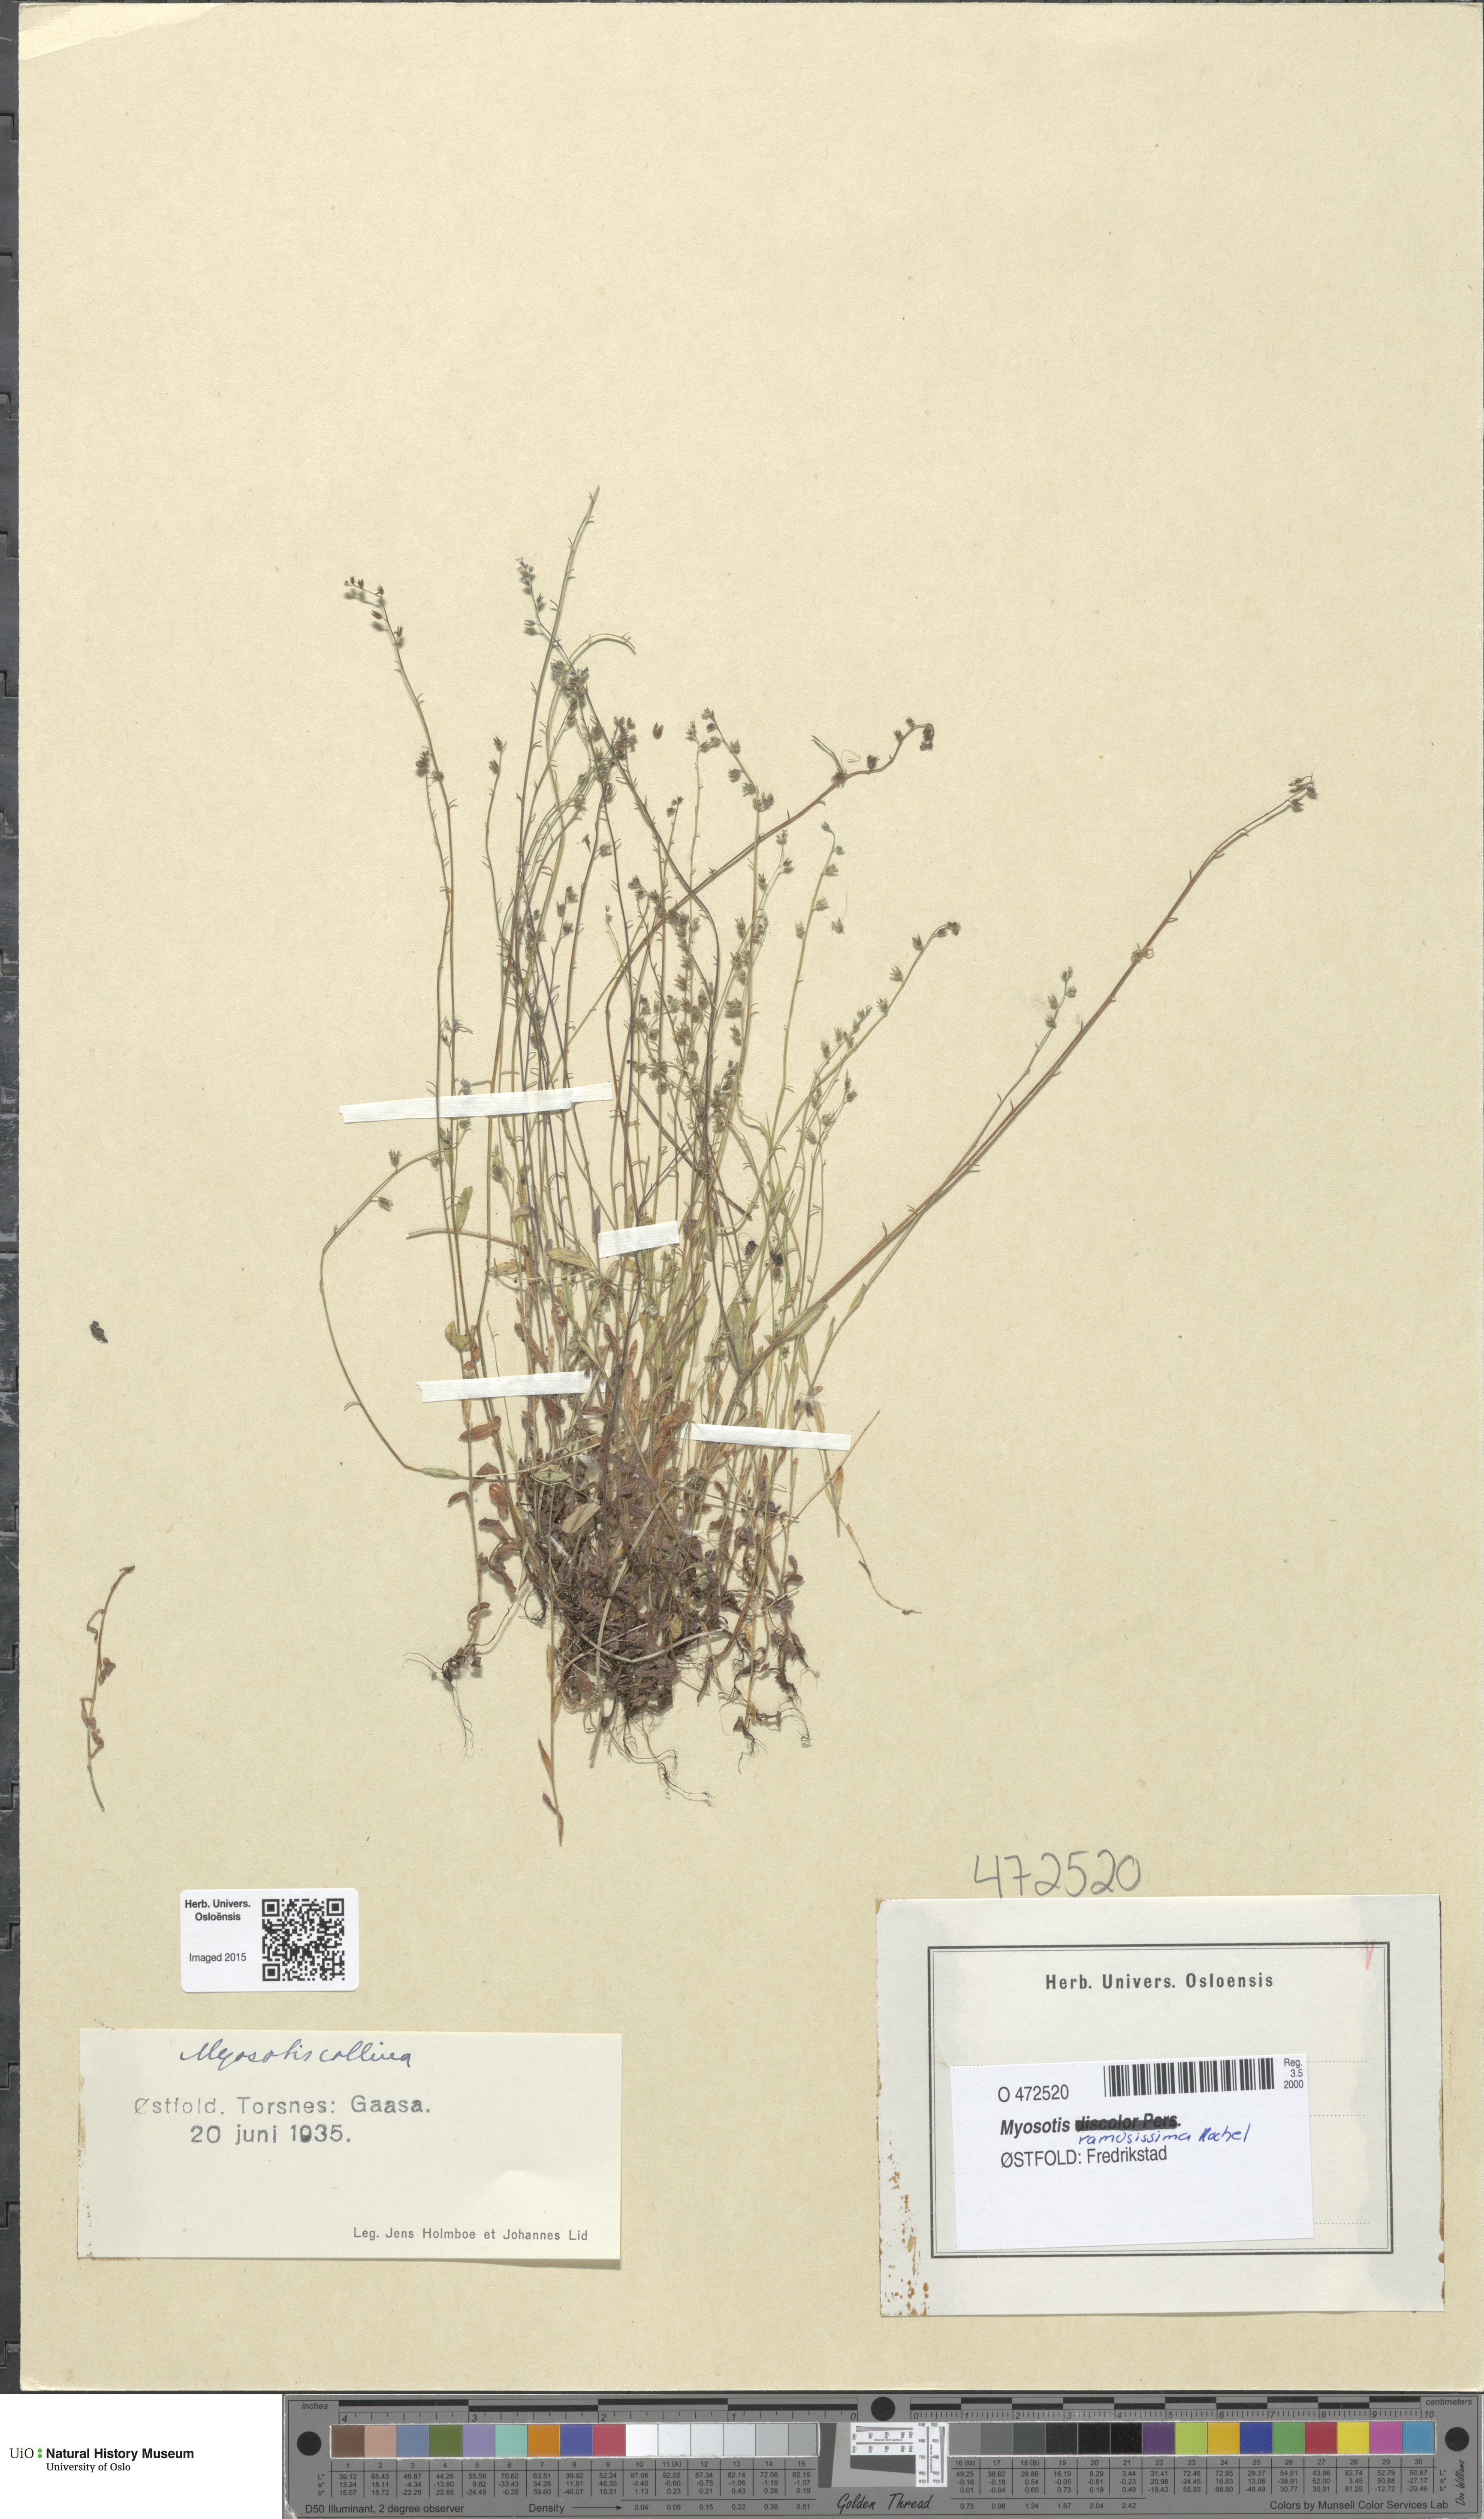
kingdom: Plantae
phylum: Tracheophyta
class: Magnoliopsida
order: Boraginales
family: Boraginaceae
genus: Myosotis
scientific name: Myosotis ramosissima
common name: Early forget-me-not
